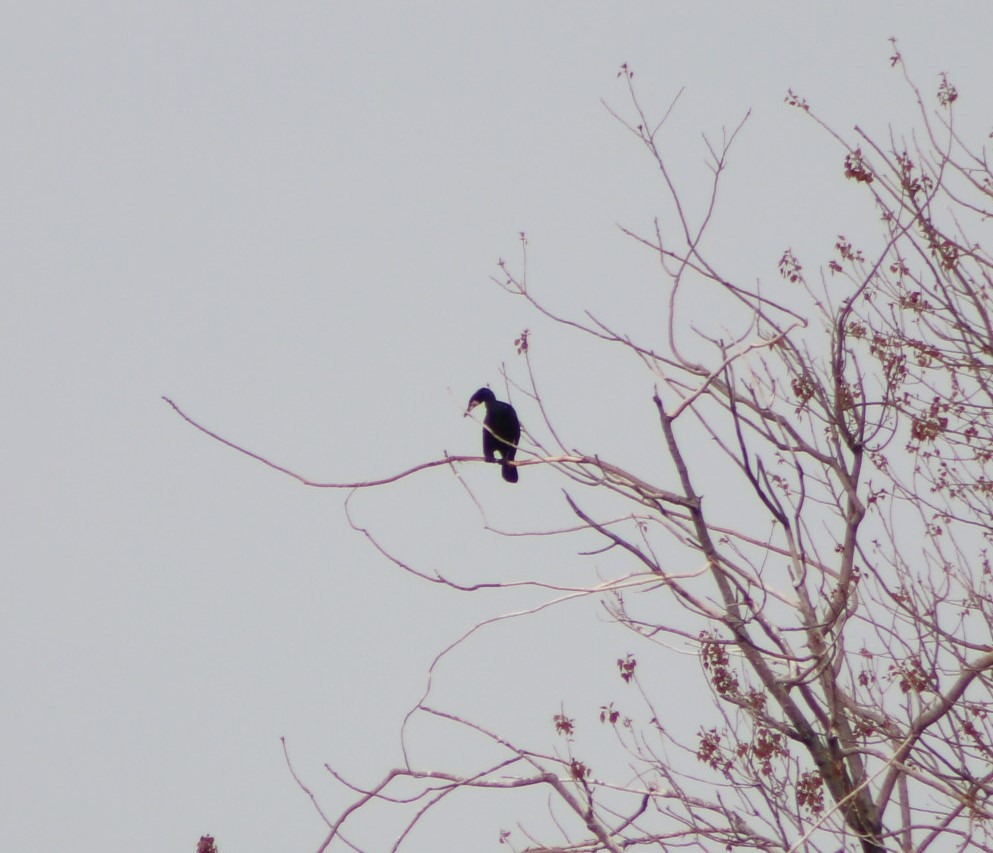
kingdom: Animalia
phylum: Chordata
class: Aves
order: Suliformes
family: Phalacrocoracidae
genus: Phalacrocorax
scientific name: Phalacrocorax carbo
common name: Skarv
